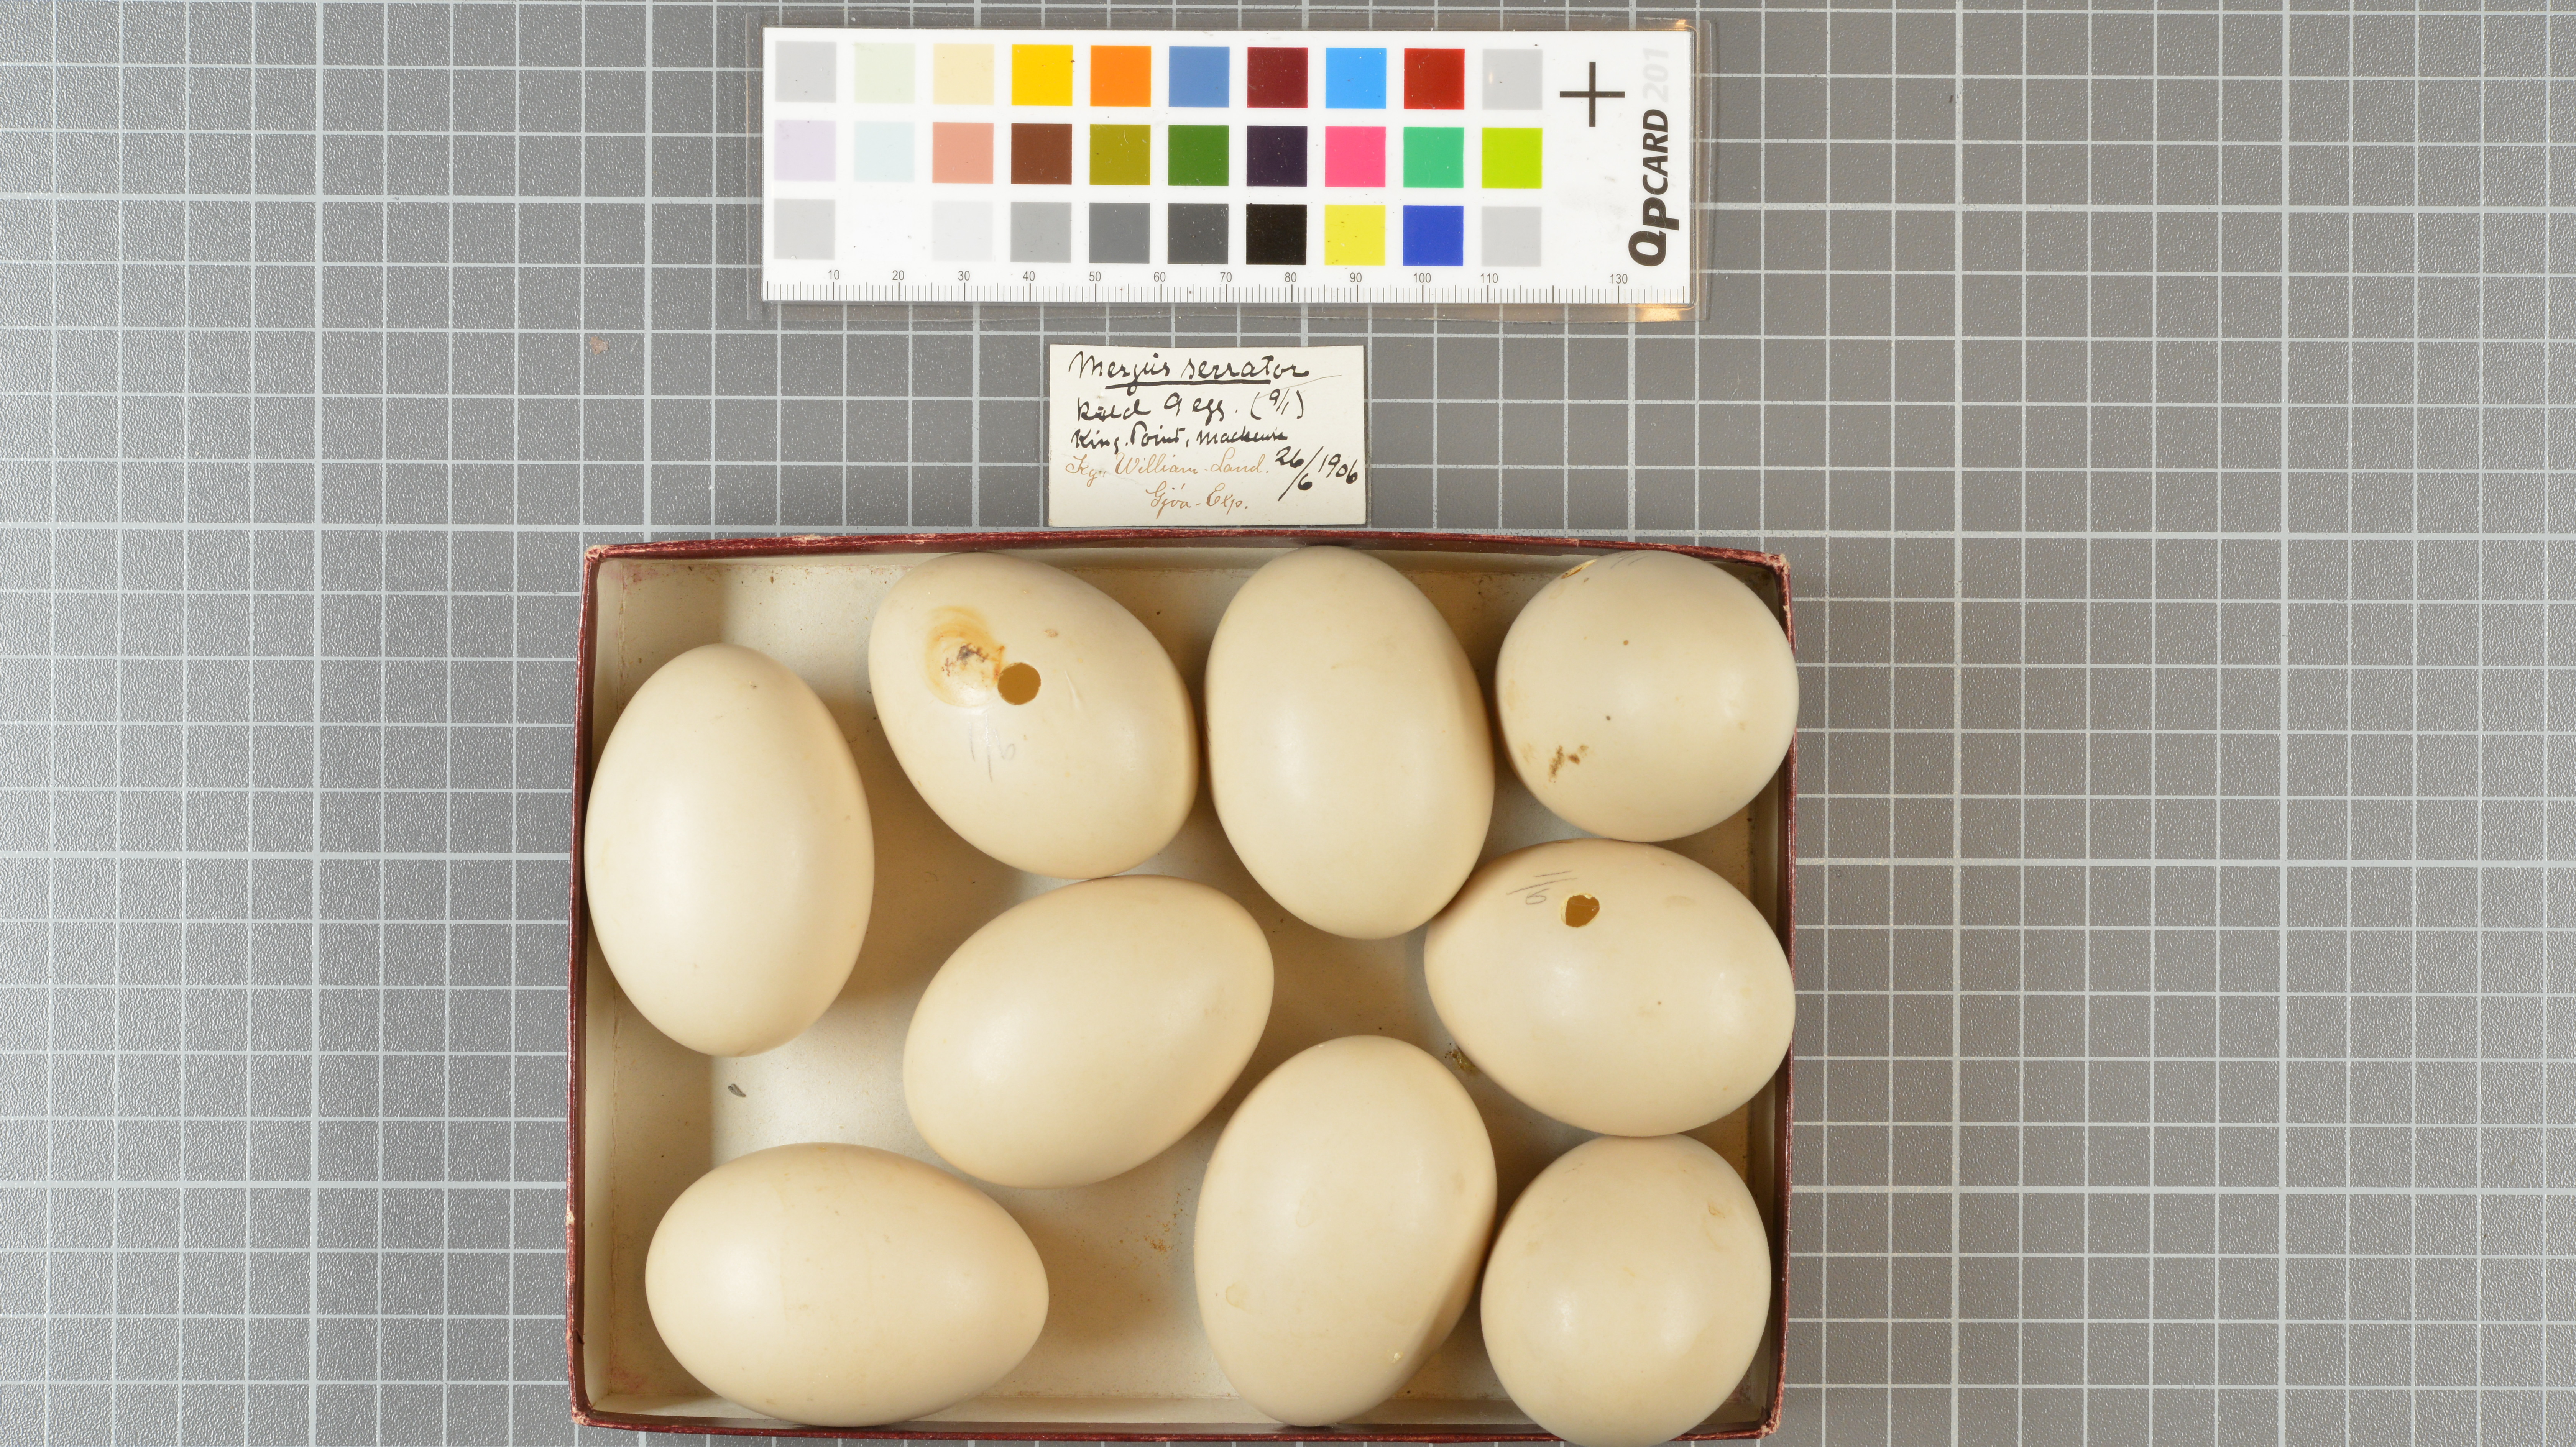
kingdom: Animalia
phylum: Chordata
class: Aves
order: Anseriformes
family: Anatidae
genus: Mergus
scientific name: Mergus serrator
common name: Red-breasted merganser
